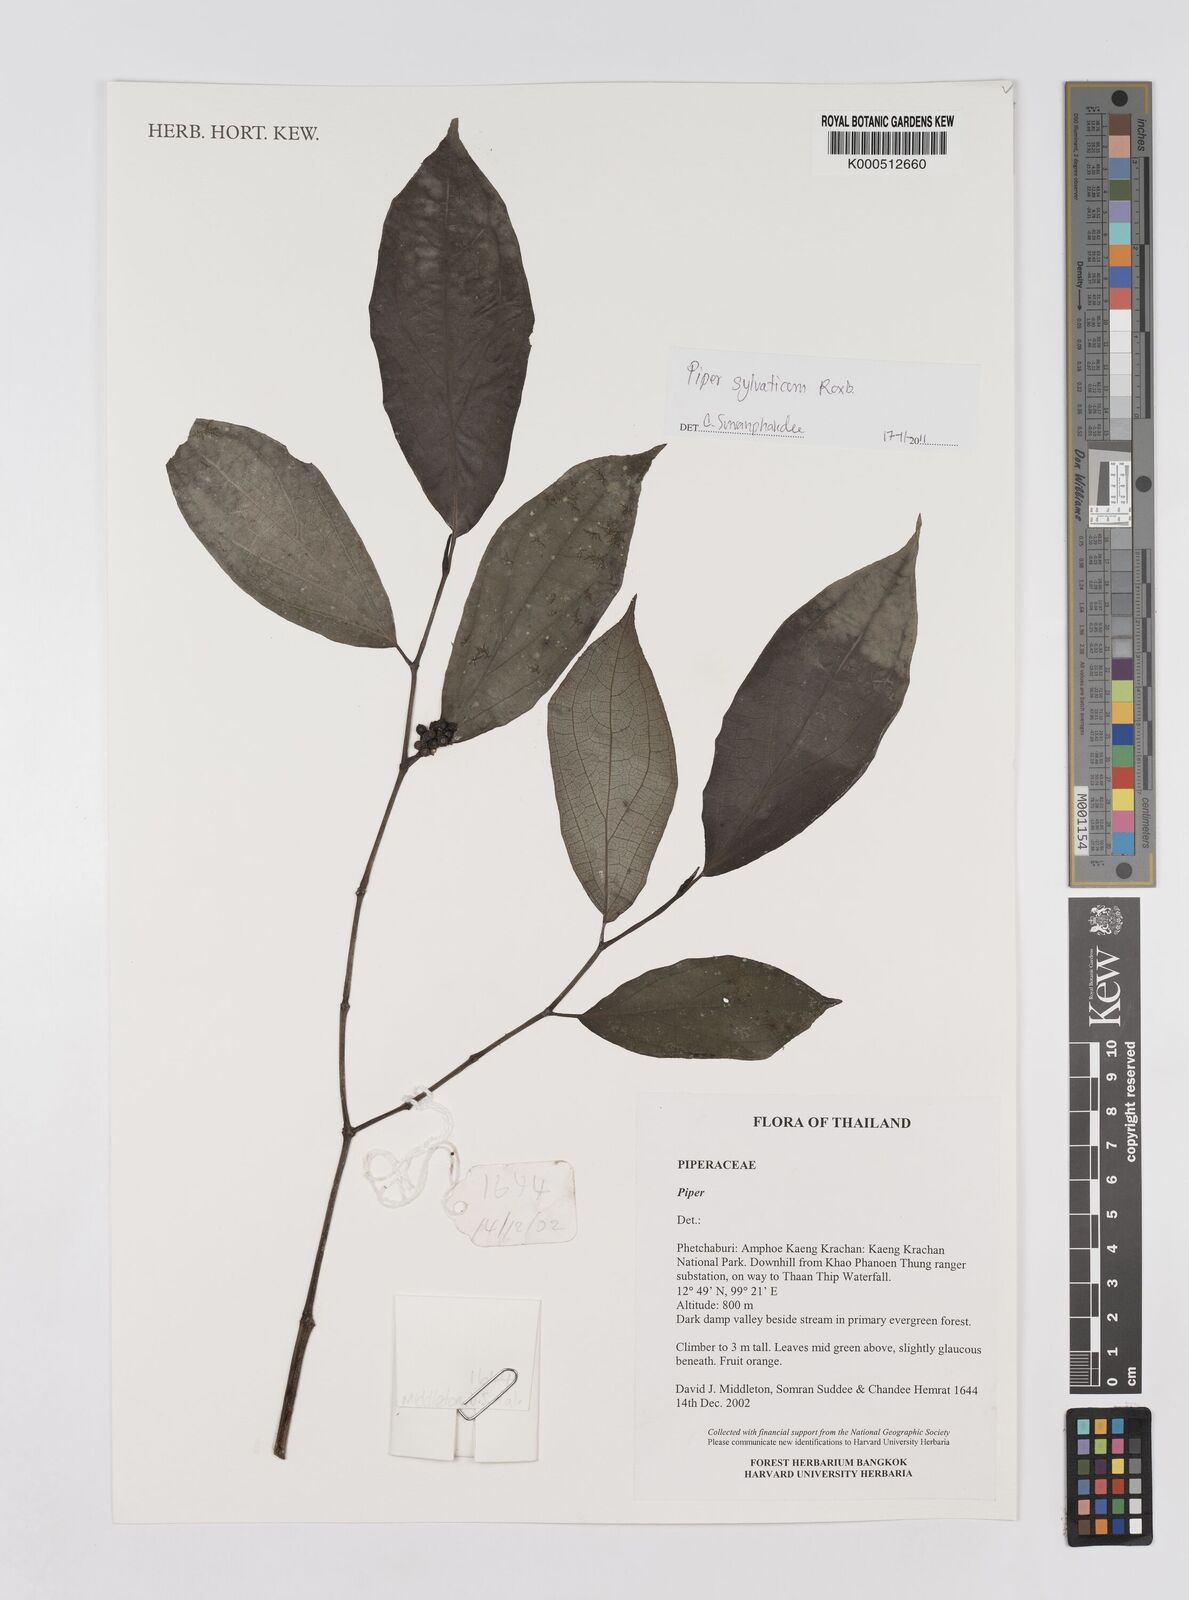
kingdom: Plantae
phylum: Tracheophyta
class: Magnoliopsida
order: Piperales
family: Piperaceae
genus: Piper
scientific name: Piper
